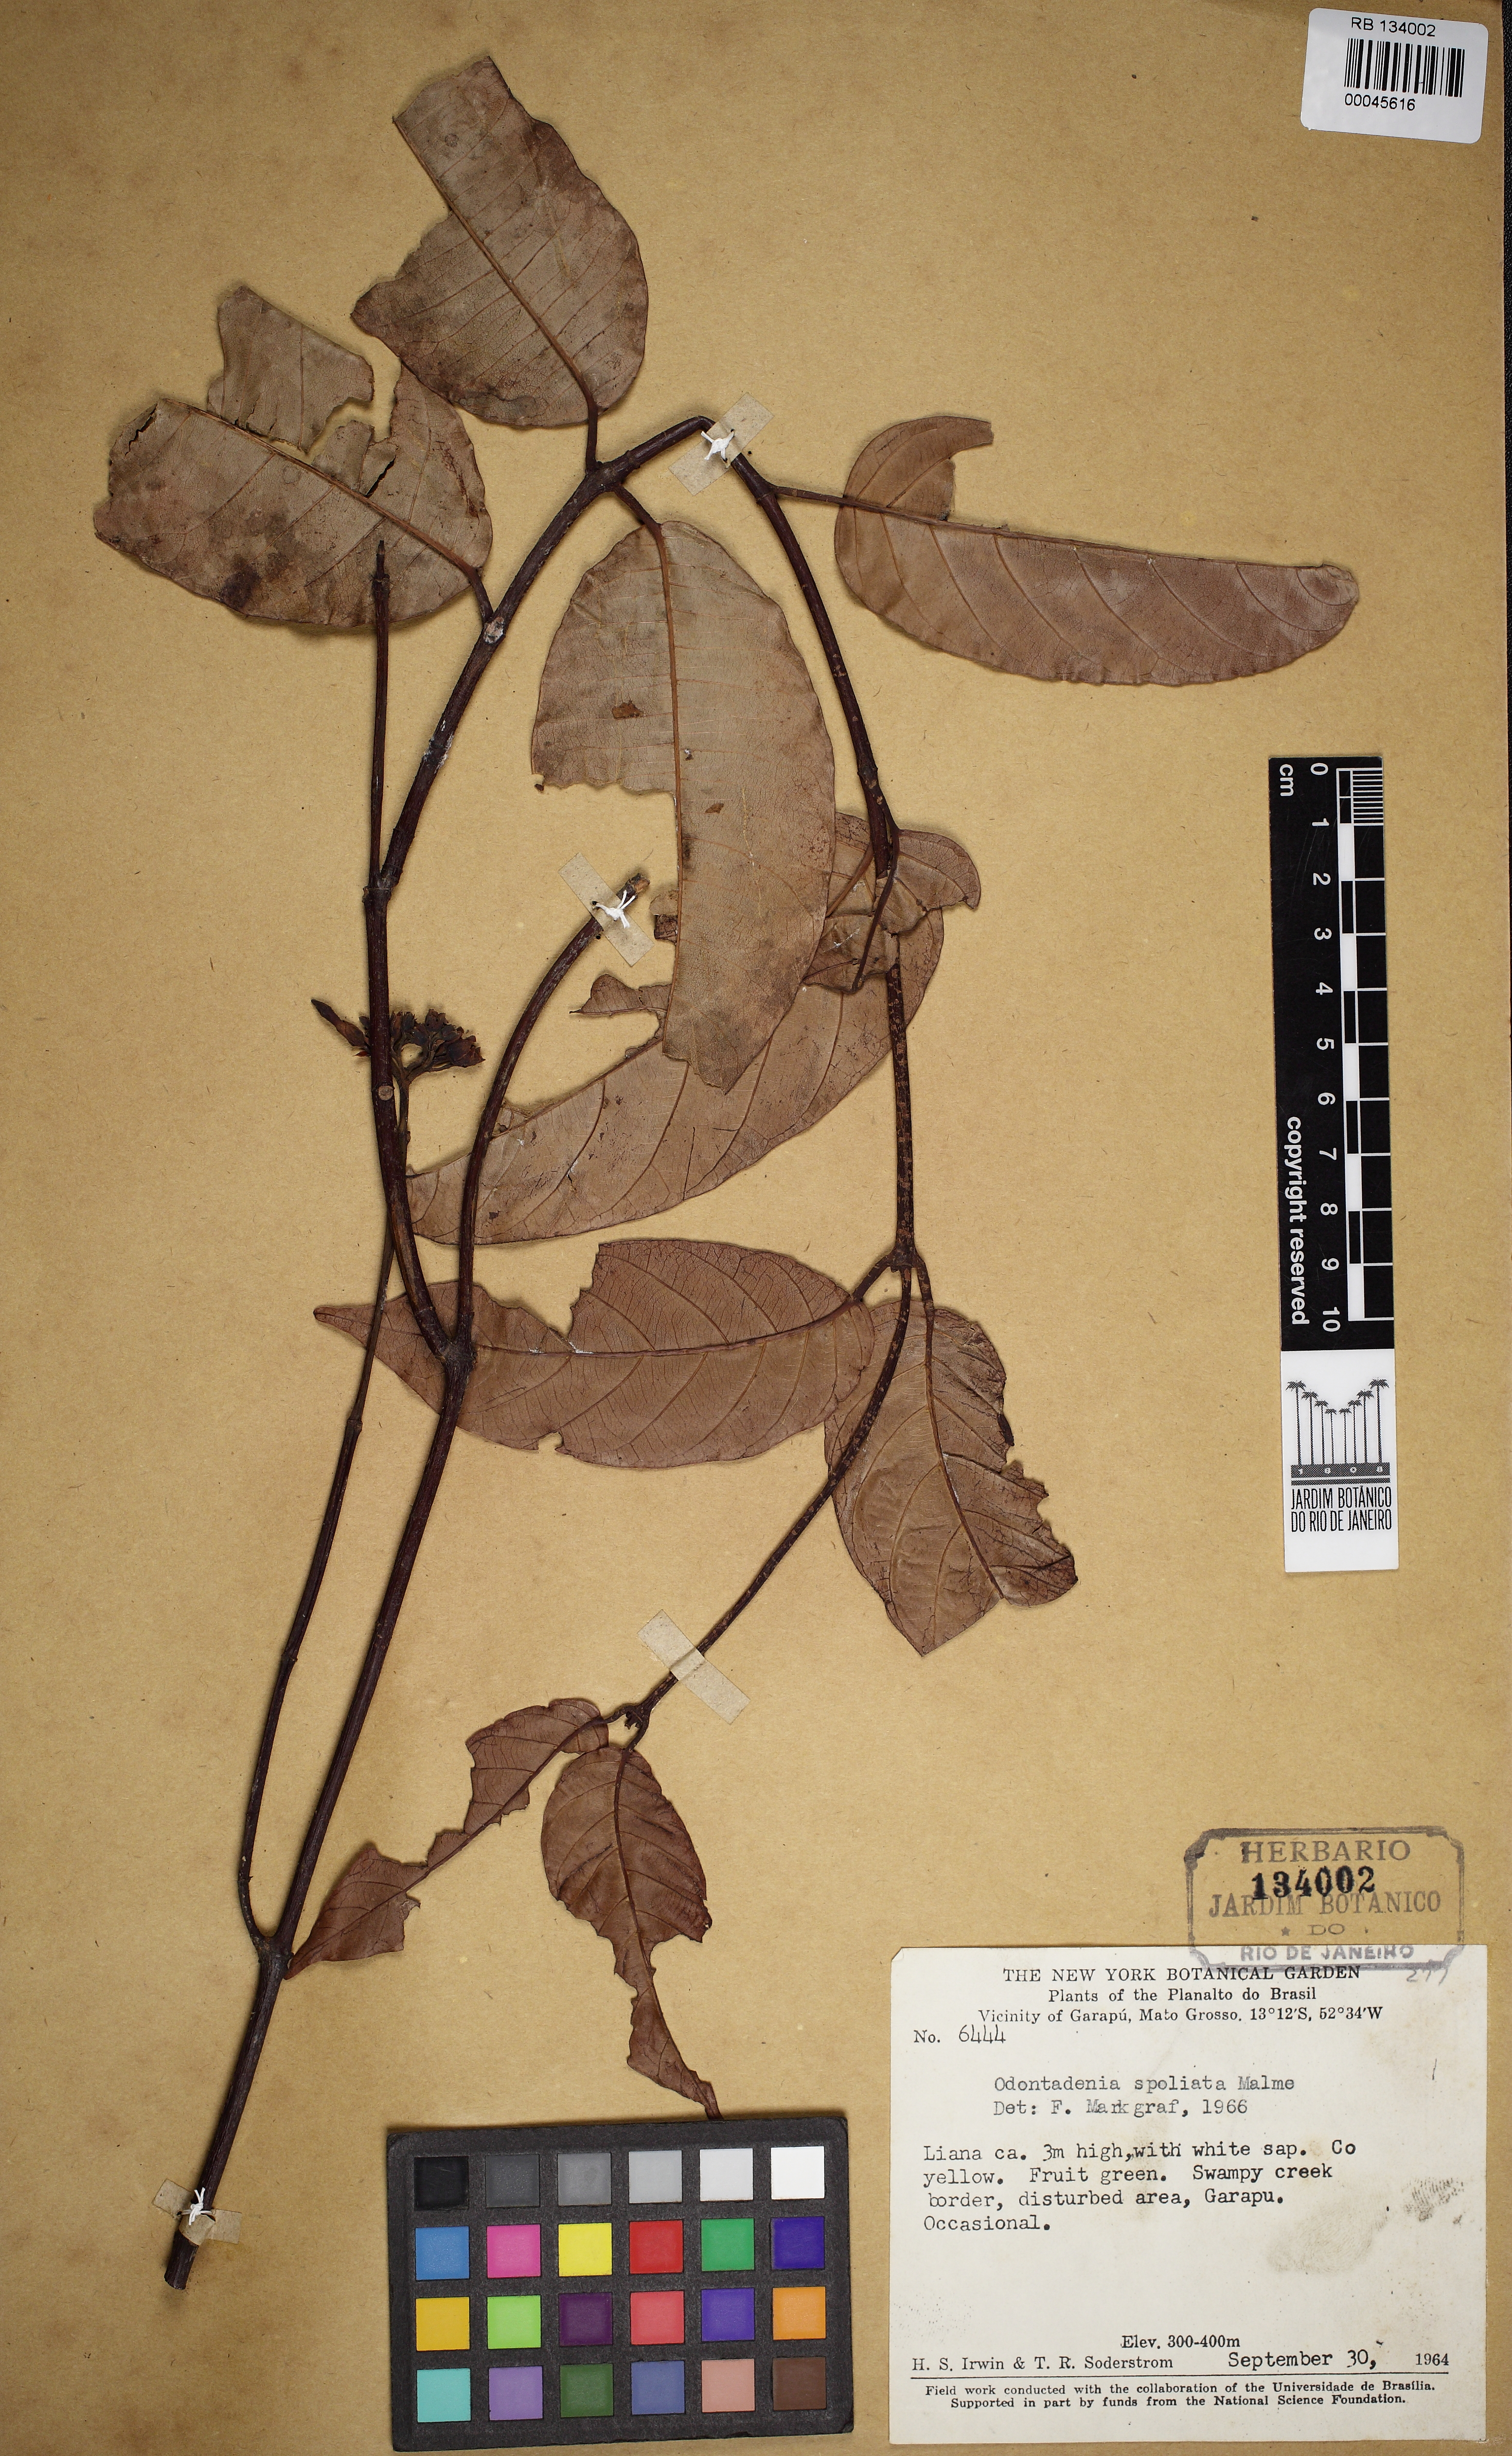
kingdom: Plantae
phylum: Tracheophyta
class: Magnoliopsida
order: Gentianales
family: Apocynaceae
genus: Odontadenia
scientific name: Odontadenia puncticulosa
